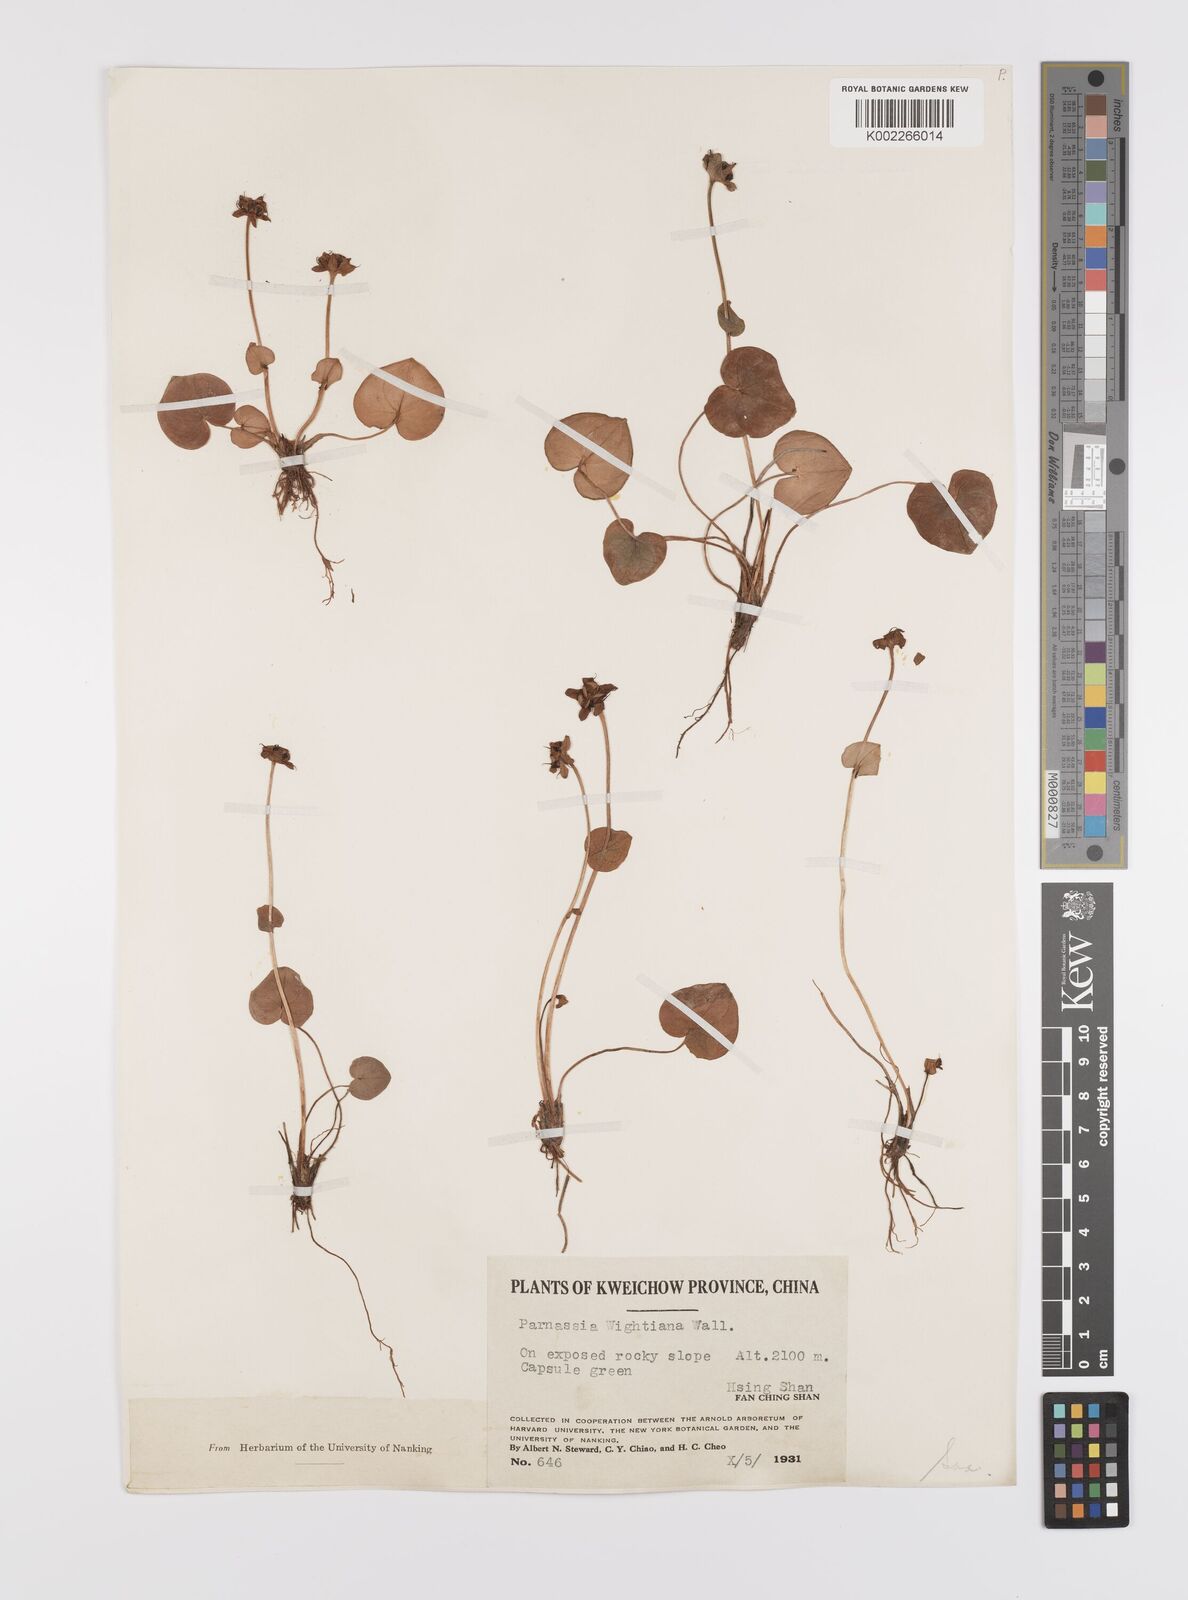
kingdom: Plantae
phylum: Tracheophyta
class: Magnoliopsida
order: Celastrales
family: Parnassiaceae
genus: Parnassia
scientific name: Parnassia wightiana
